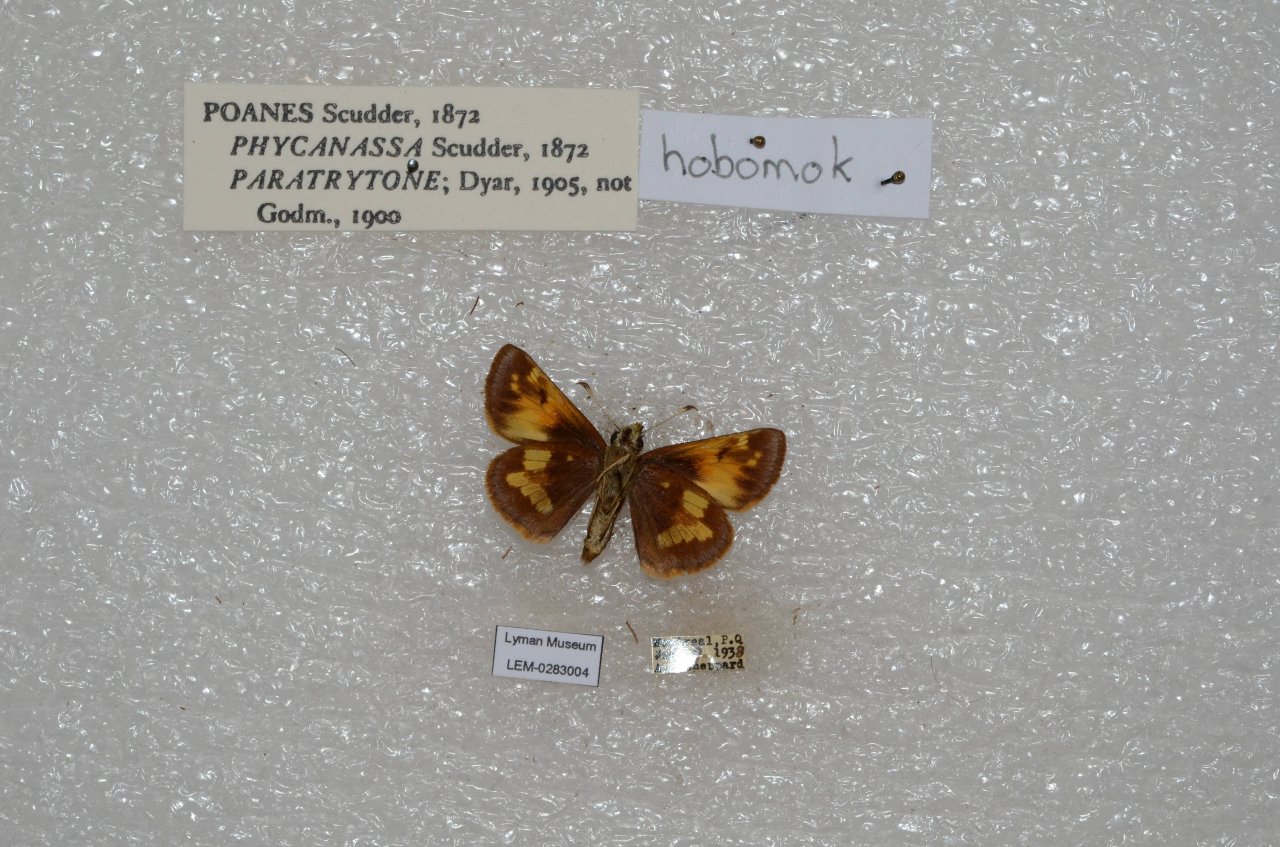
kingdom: Animalia
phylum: Arthropoda
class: Insecta
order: Lepidoptera
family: Hesperiidae
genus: Lon
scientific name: Lon hobomok
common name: Hobomok Skipper
